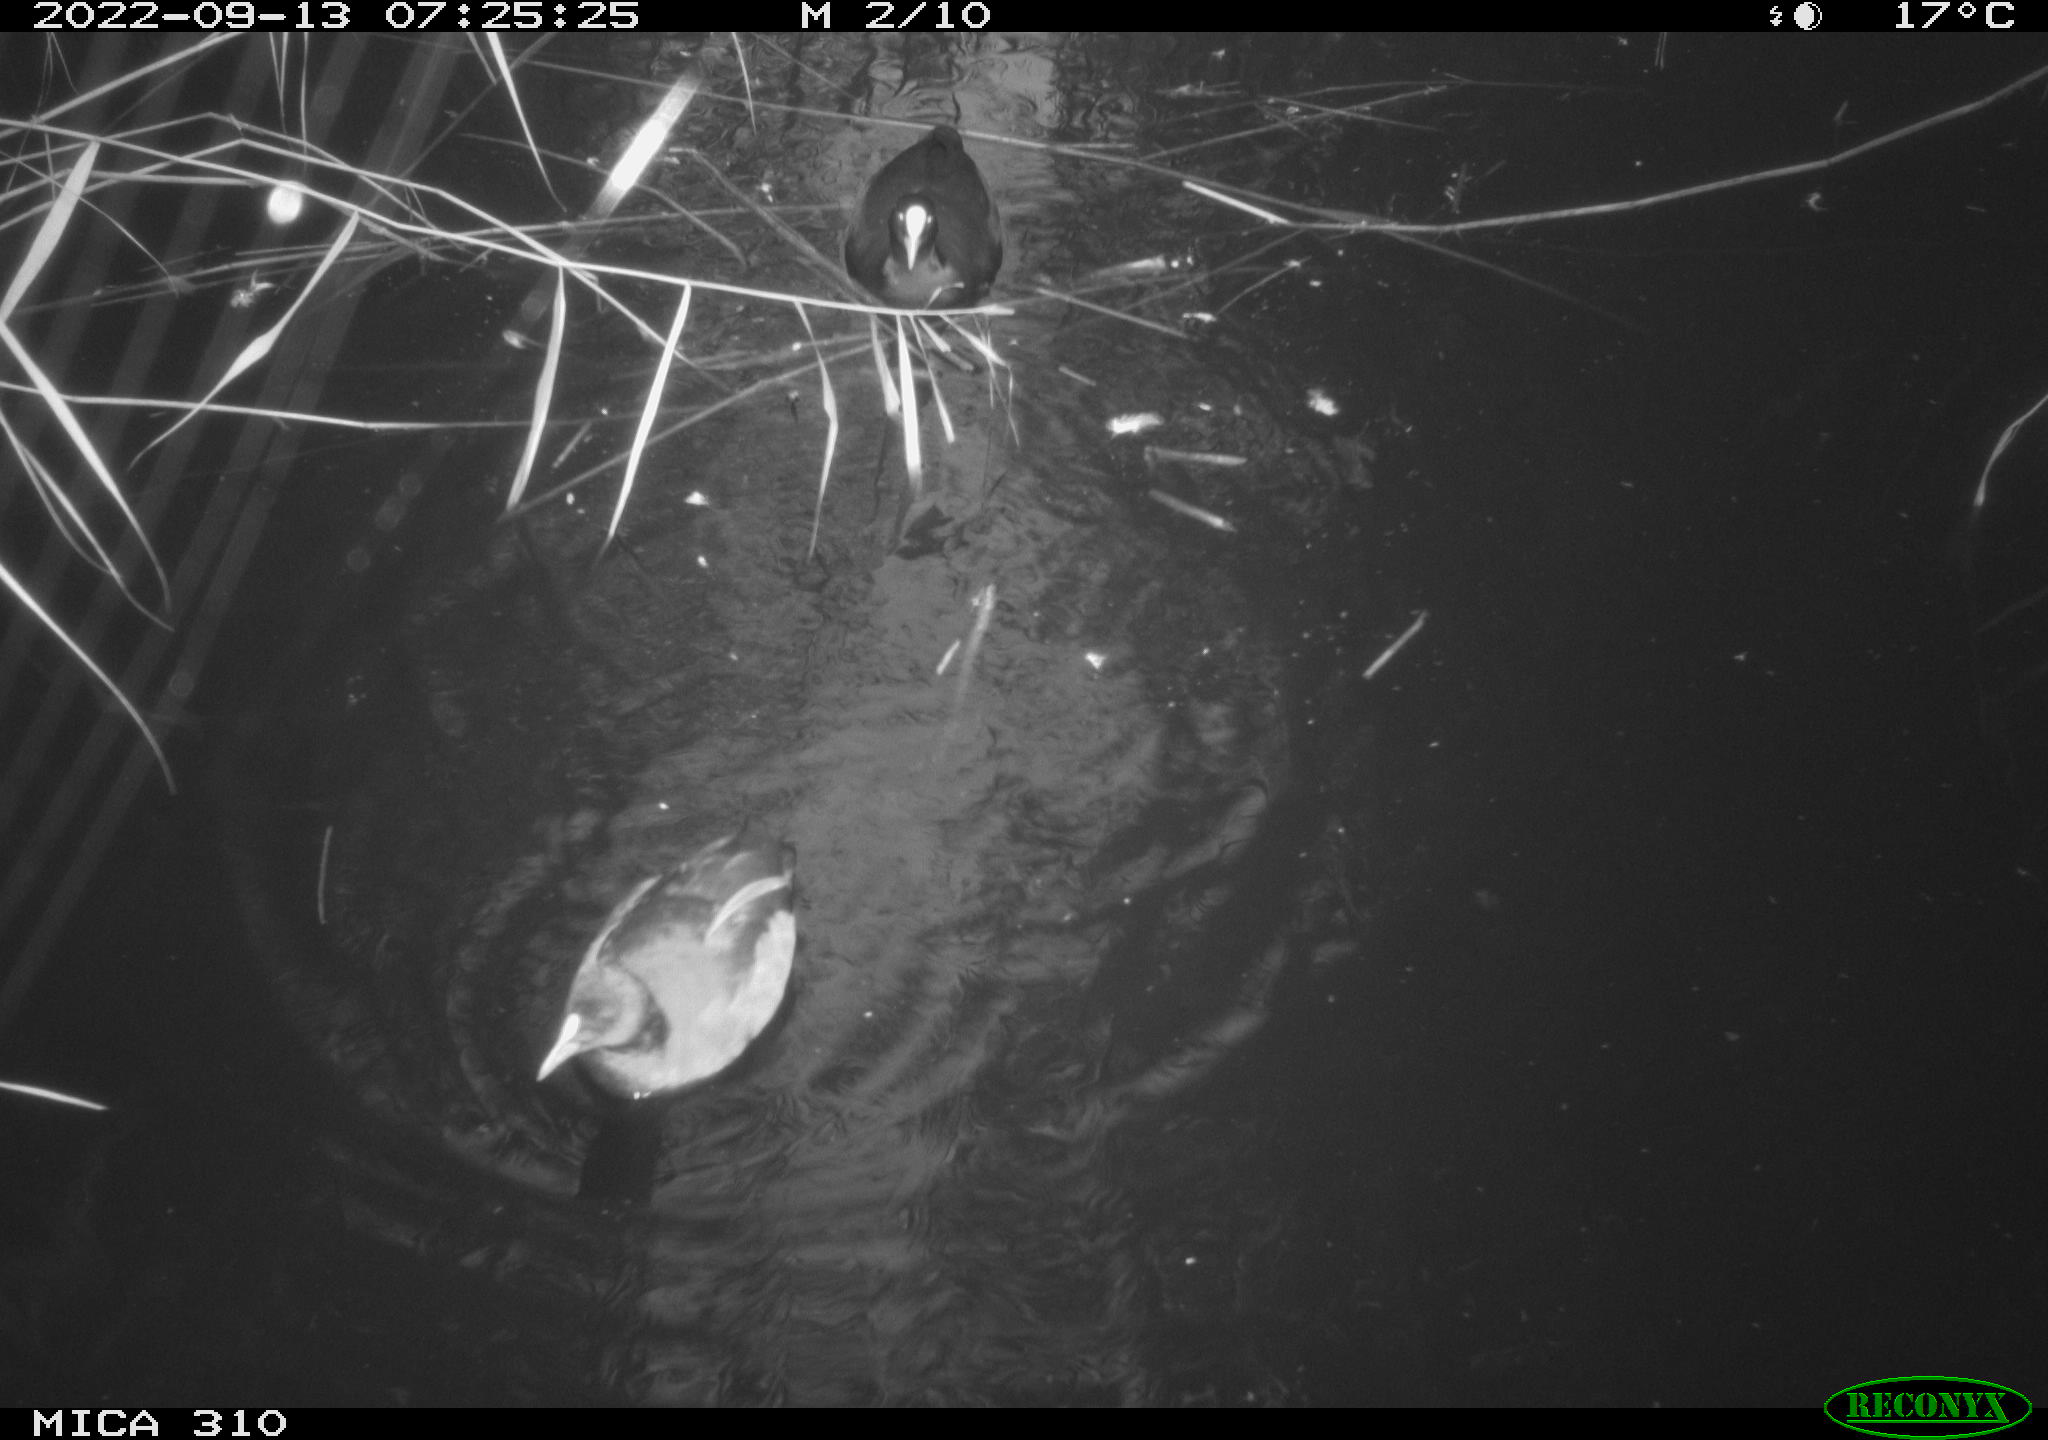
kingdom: Animalia
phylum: Chordata
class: Aves
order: Anseriformes
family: Anatidae
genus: Anas
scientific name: Anas
